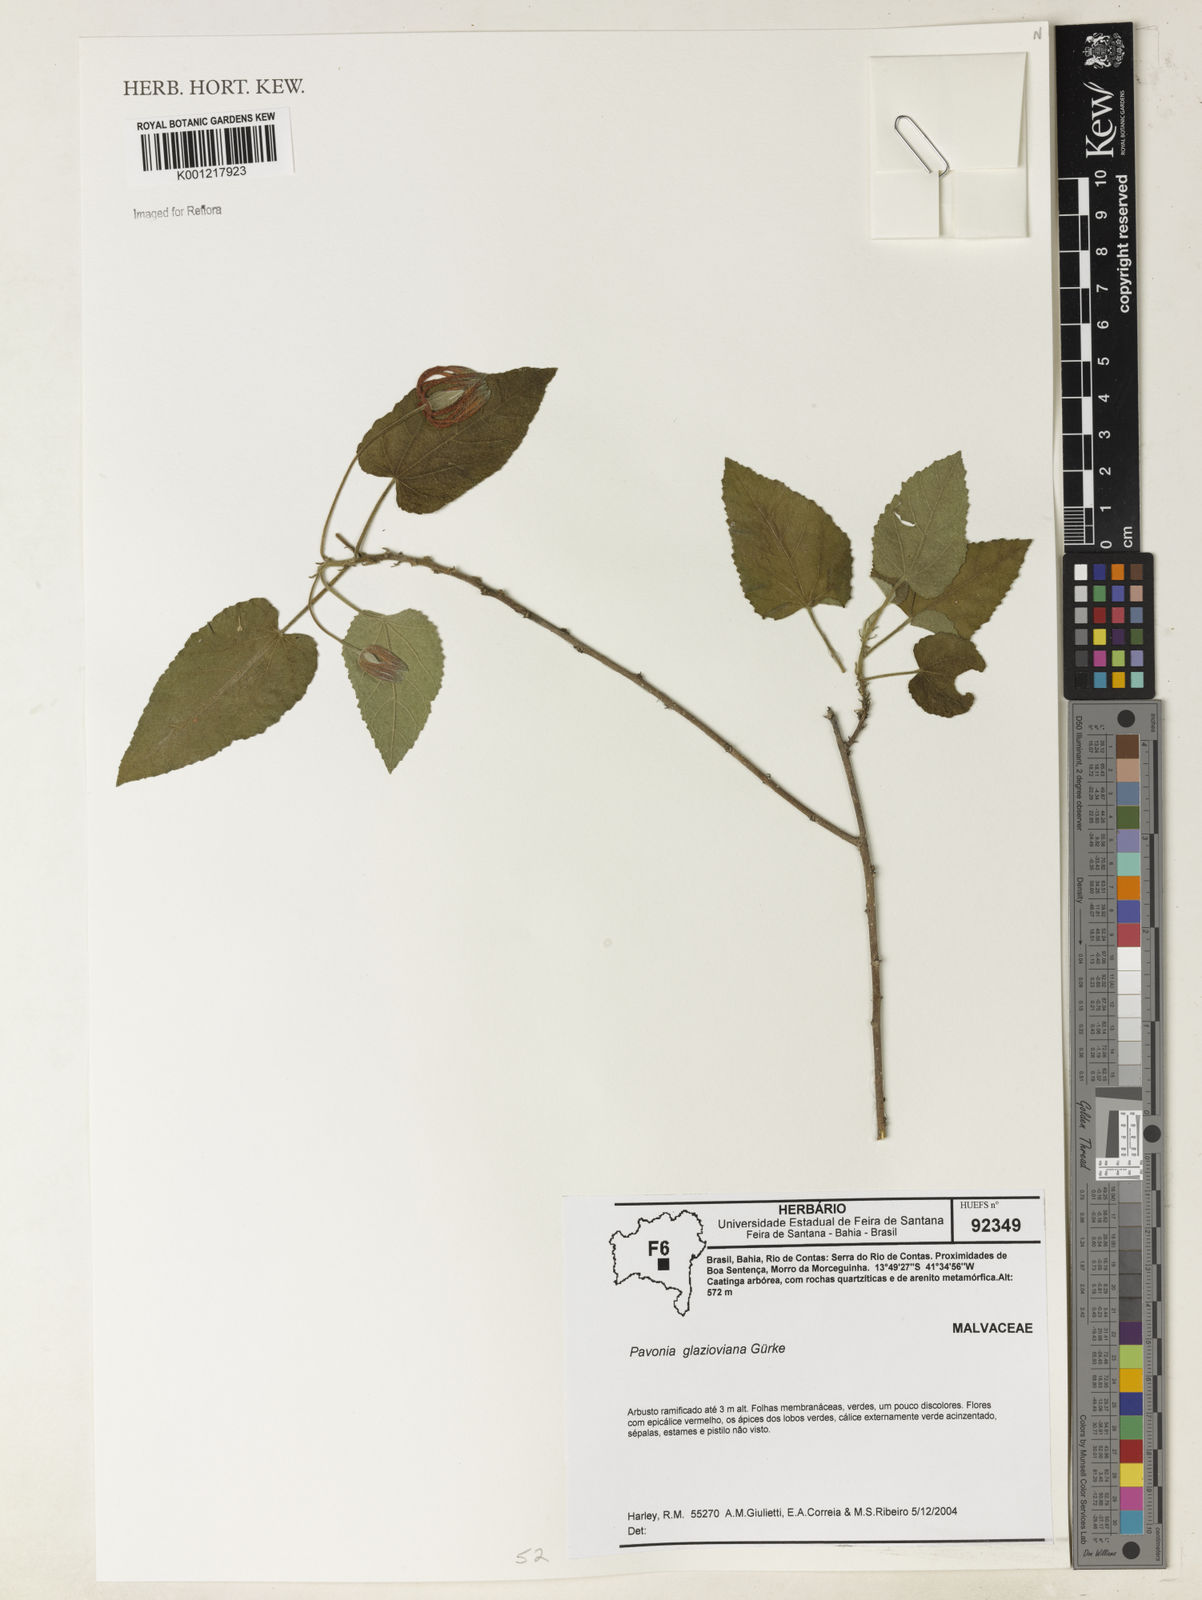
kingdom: Plantae
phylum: Tracheophyta
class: Magnoliopsida
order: Malvales
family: Malvaceae
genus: Pavonia
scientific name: Pavonia
